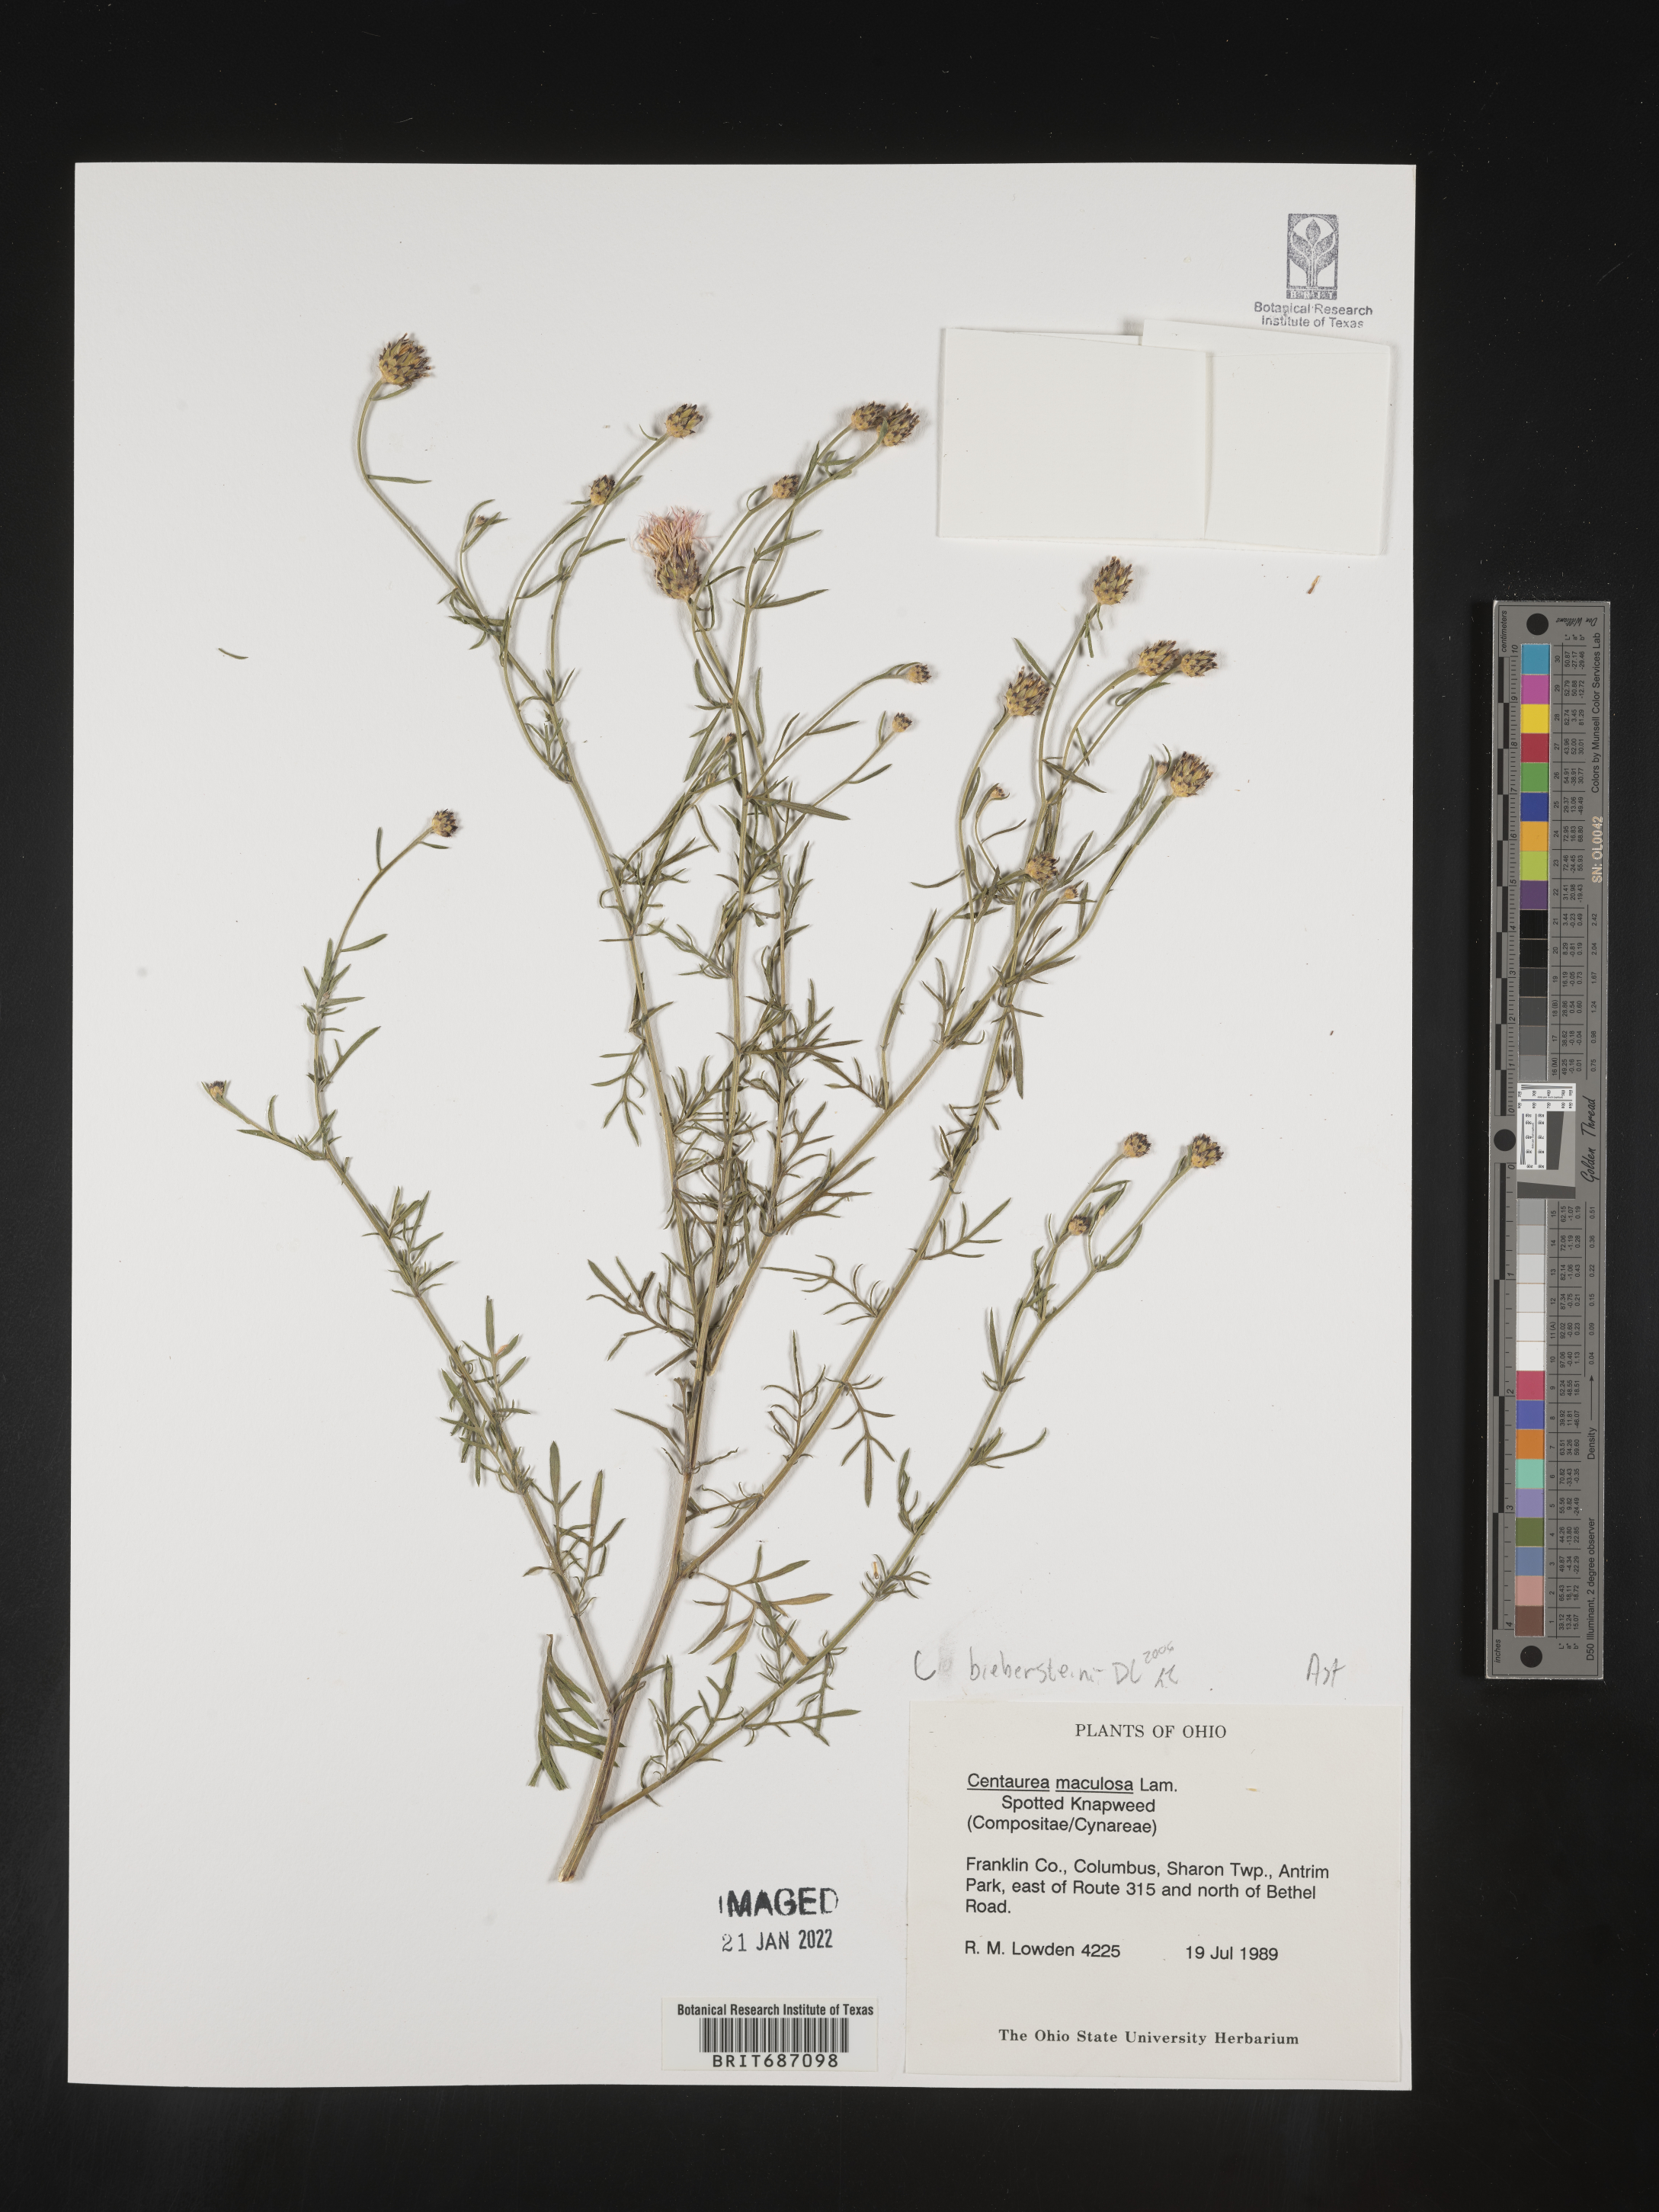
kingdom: Plantae
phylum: Tracheophyta
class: Magnoliopsida
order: Asterales
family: Asteraceae
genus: Centaurea
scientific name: Centaurea stoebe
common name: Spotted knapweed
